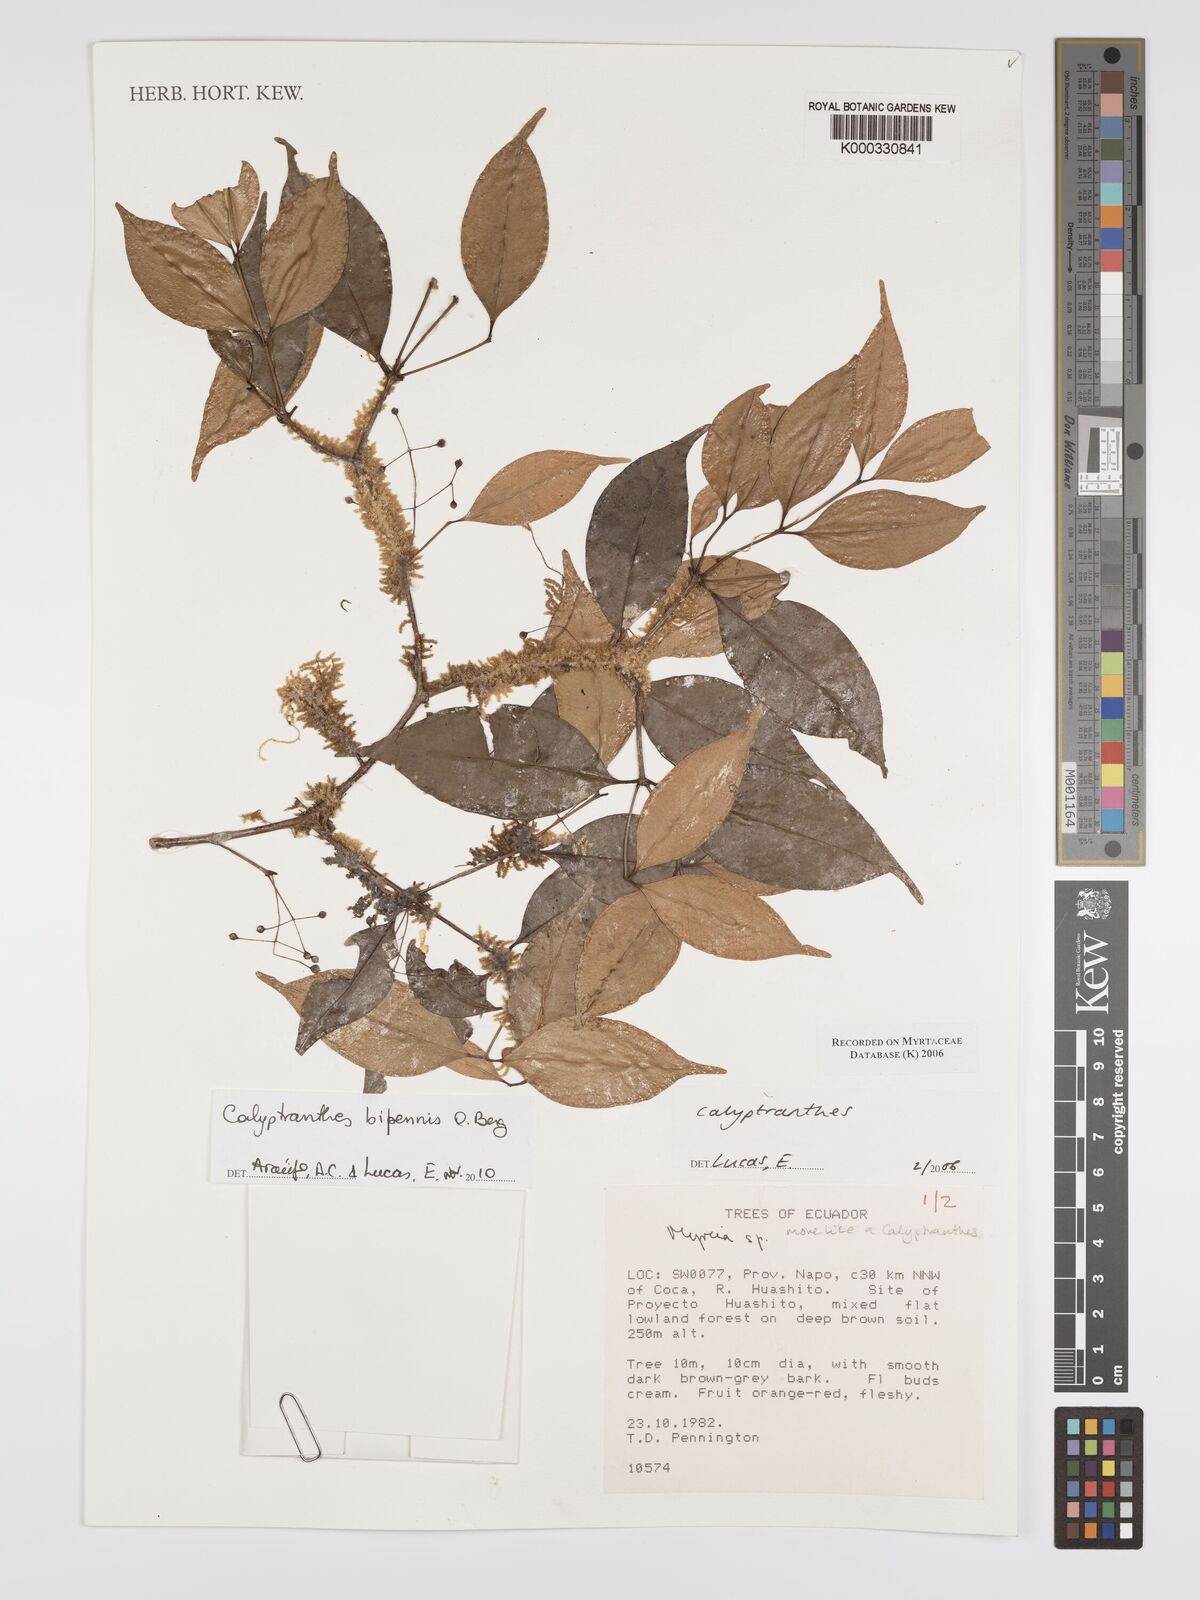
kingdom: Plantae
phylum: Tracheophyta
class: Magnoliopsida
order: Myrtales
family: Myrtaceae
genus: Calyptranthes
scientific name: Calyptranthes
